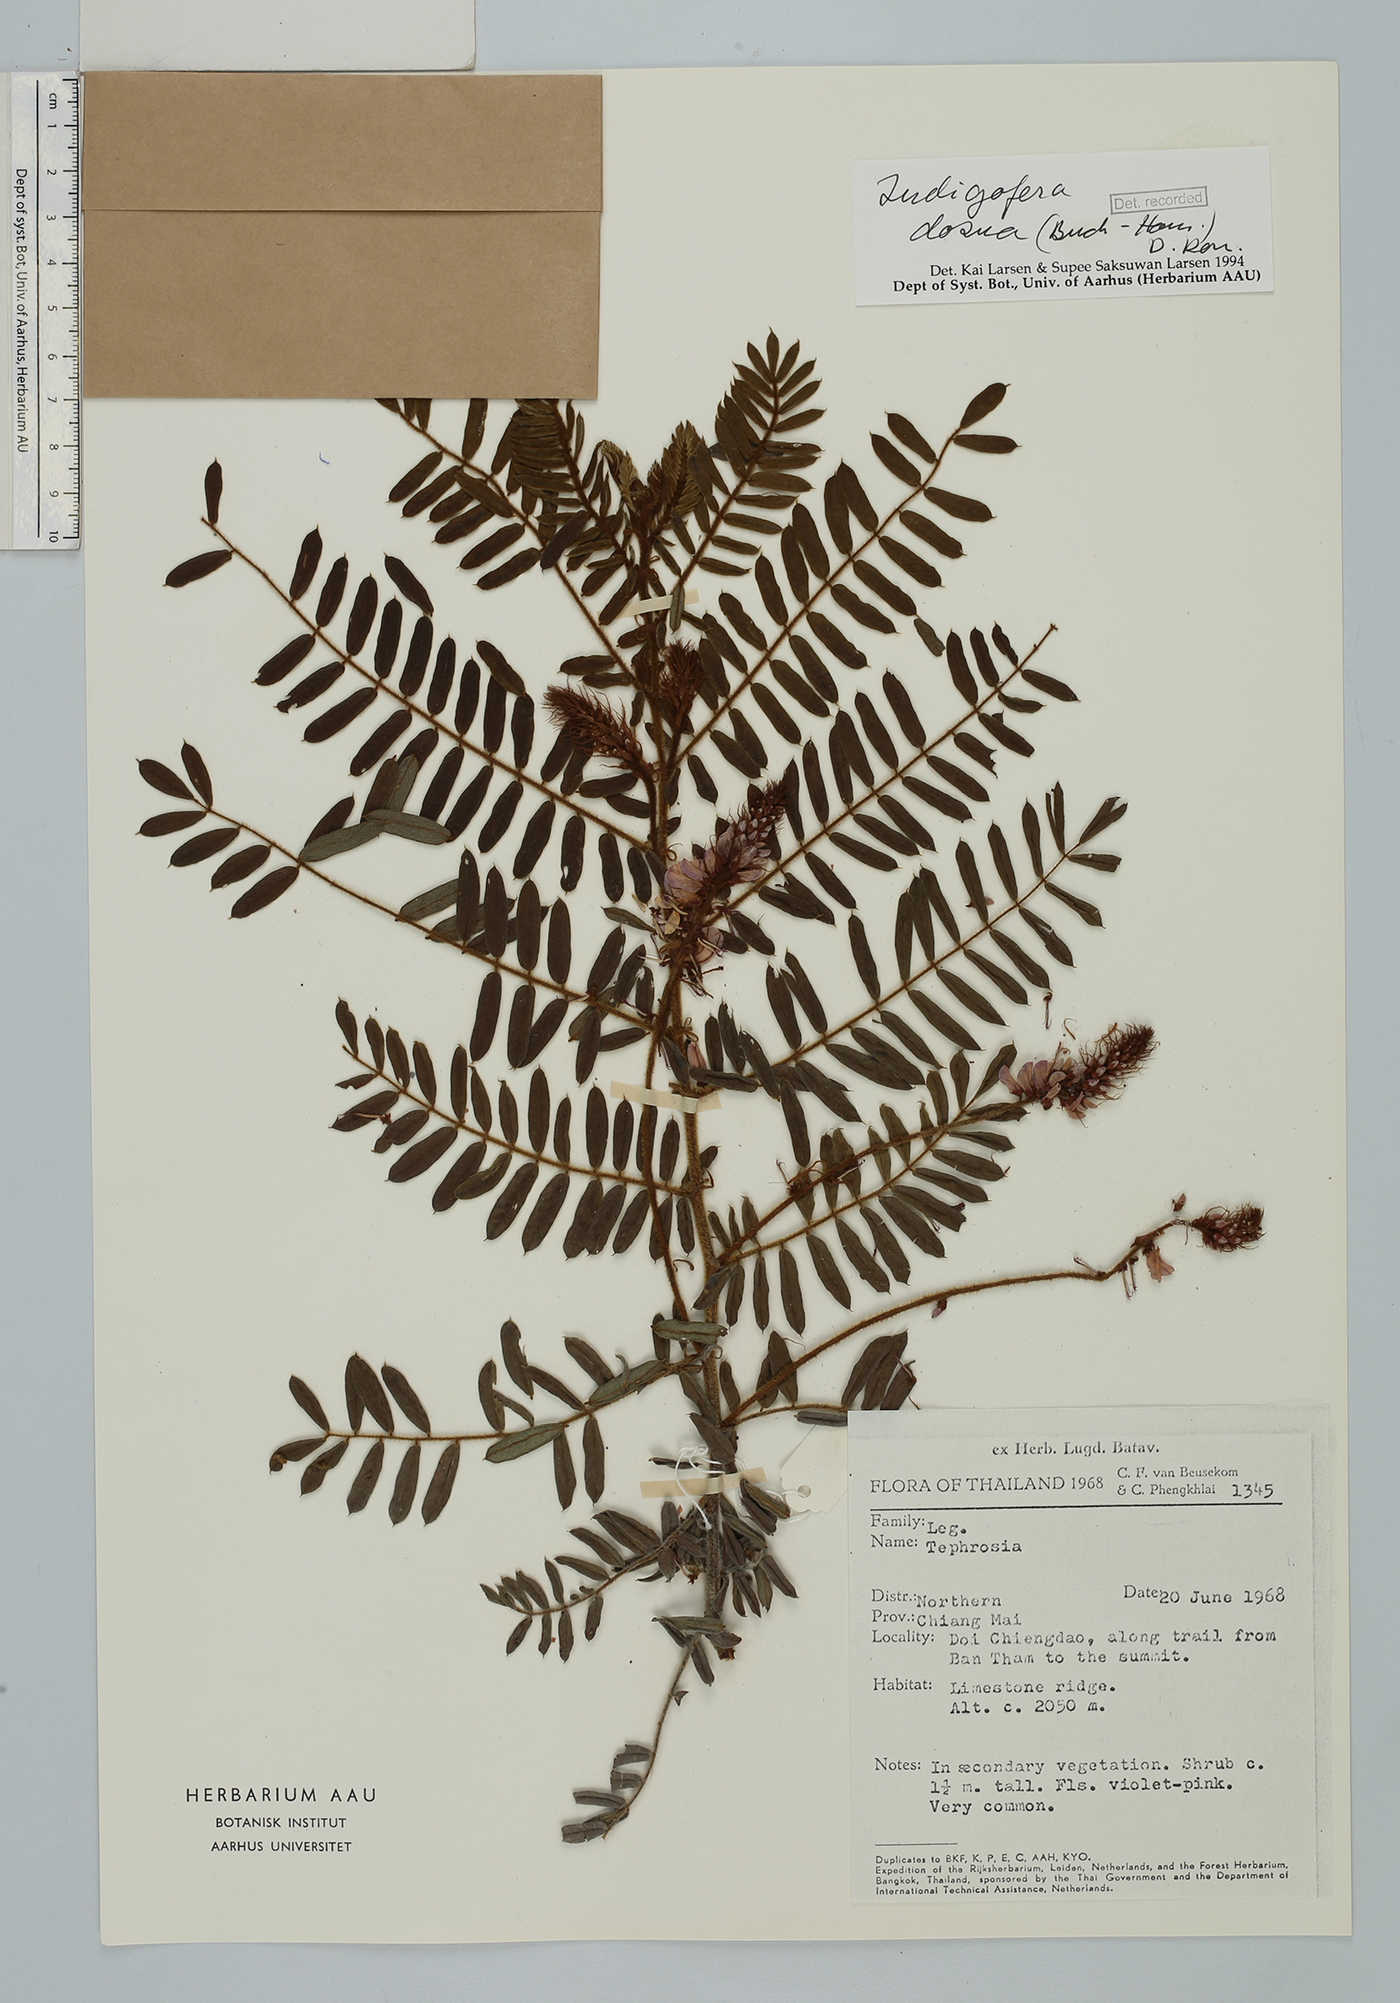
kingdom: Plantae
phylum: Tracheophyta
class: Magnoliopsida
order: Fabales
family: Fabaceae
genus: Indigofera
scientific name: Indigofera dosua
